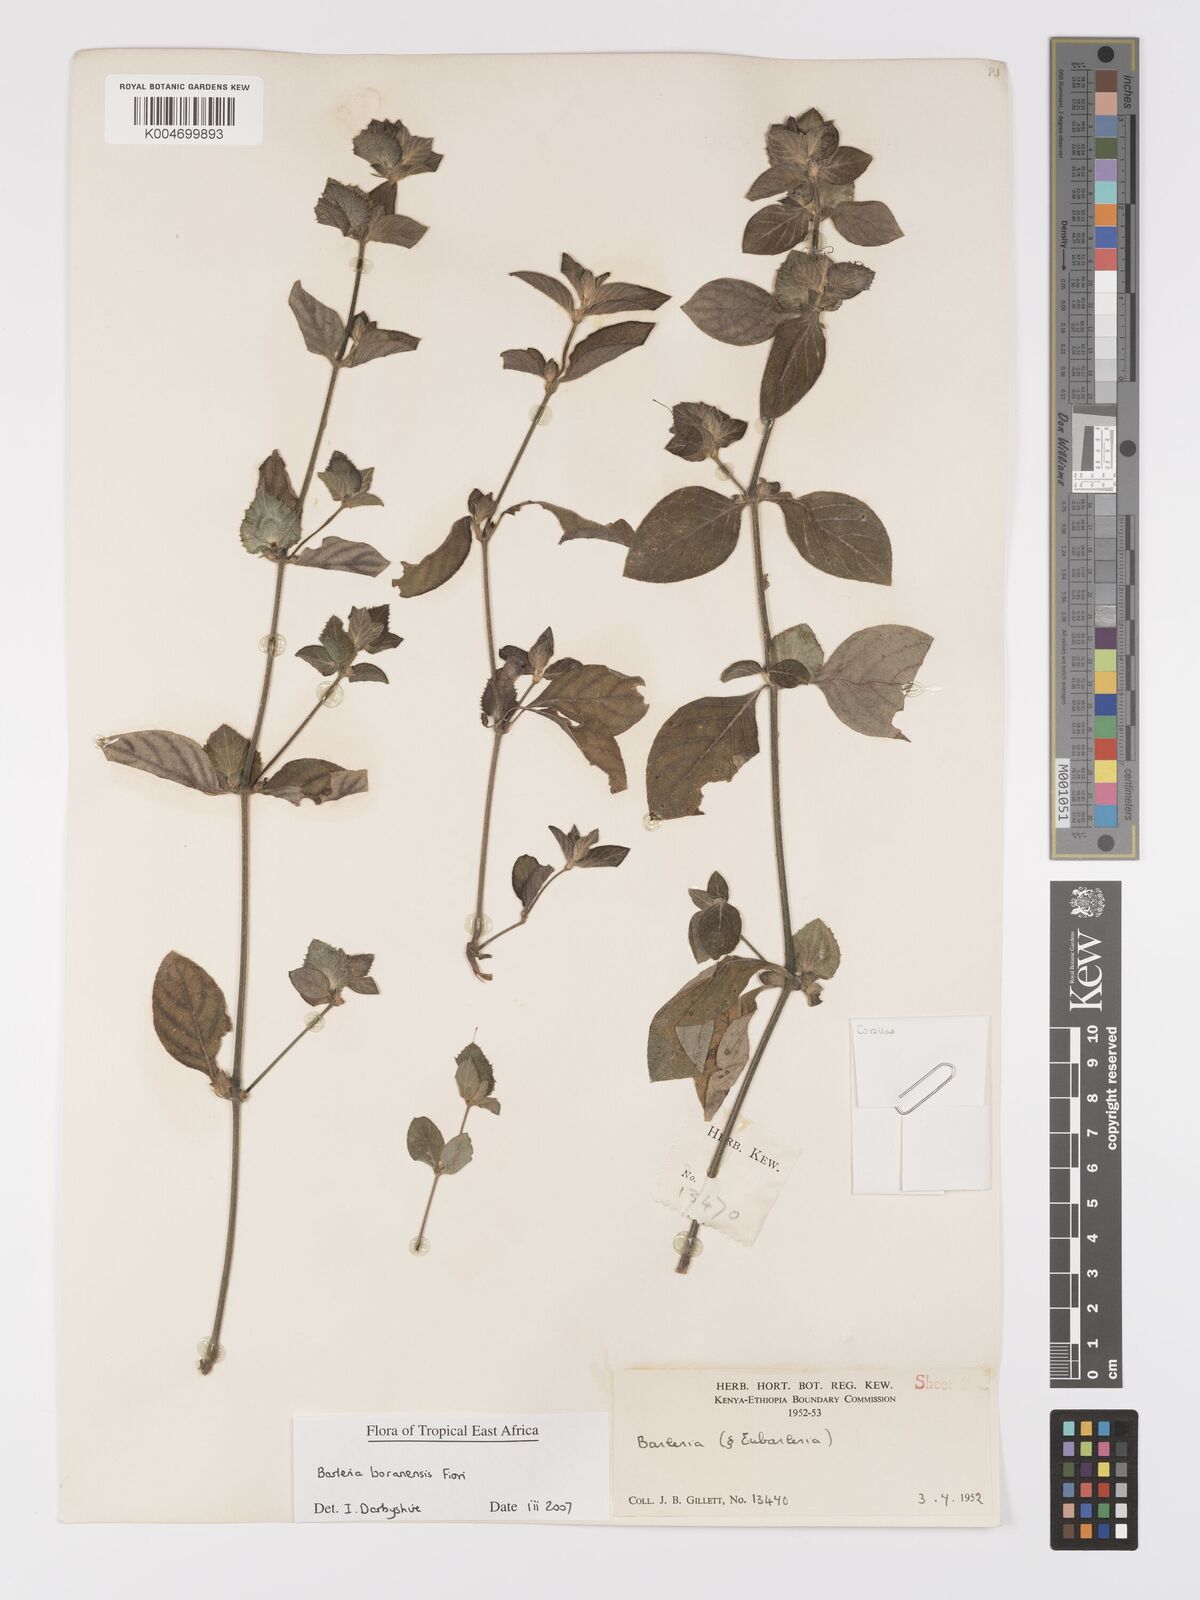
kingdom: Plantae
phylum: Tracheophyta
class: Magnoliopsida
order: Lamiales
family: Acanthaceae
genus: Barleria
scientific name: Barleria boranensis
